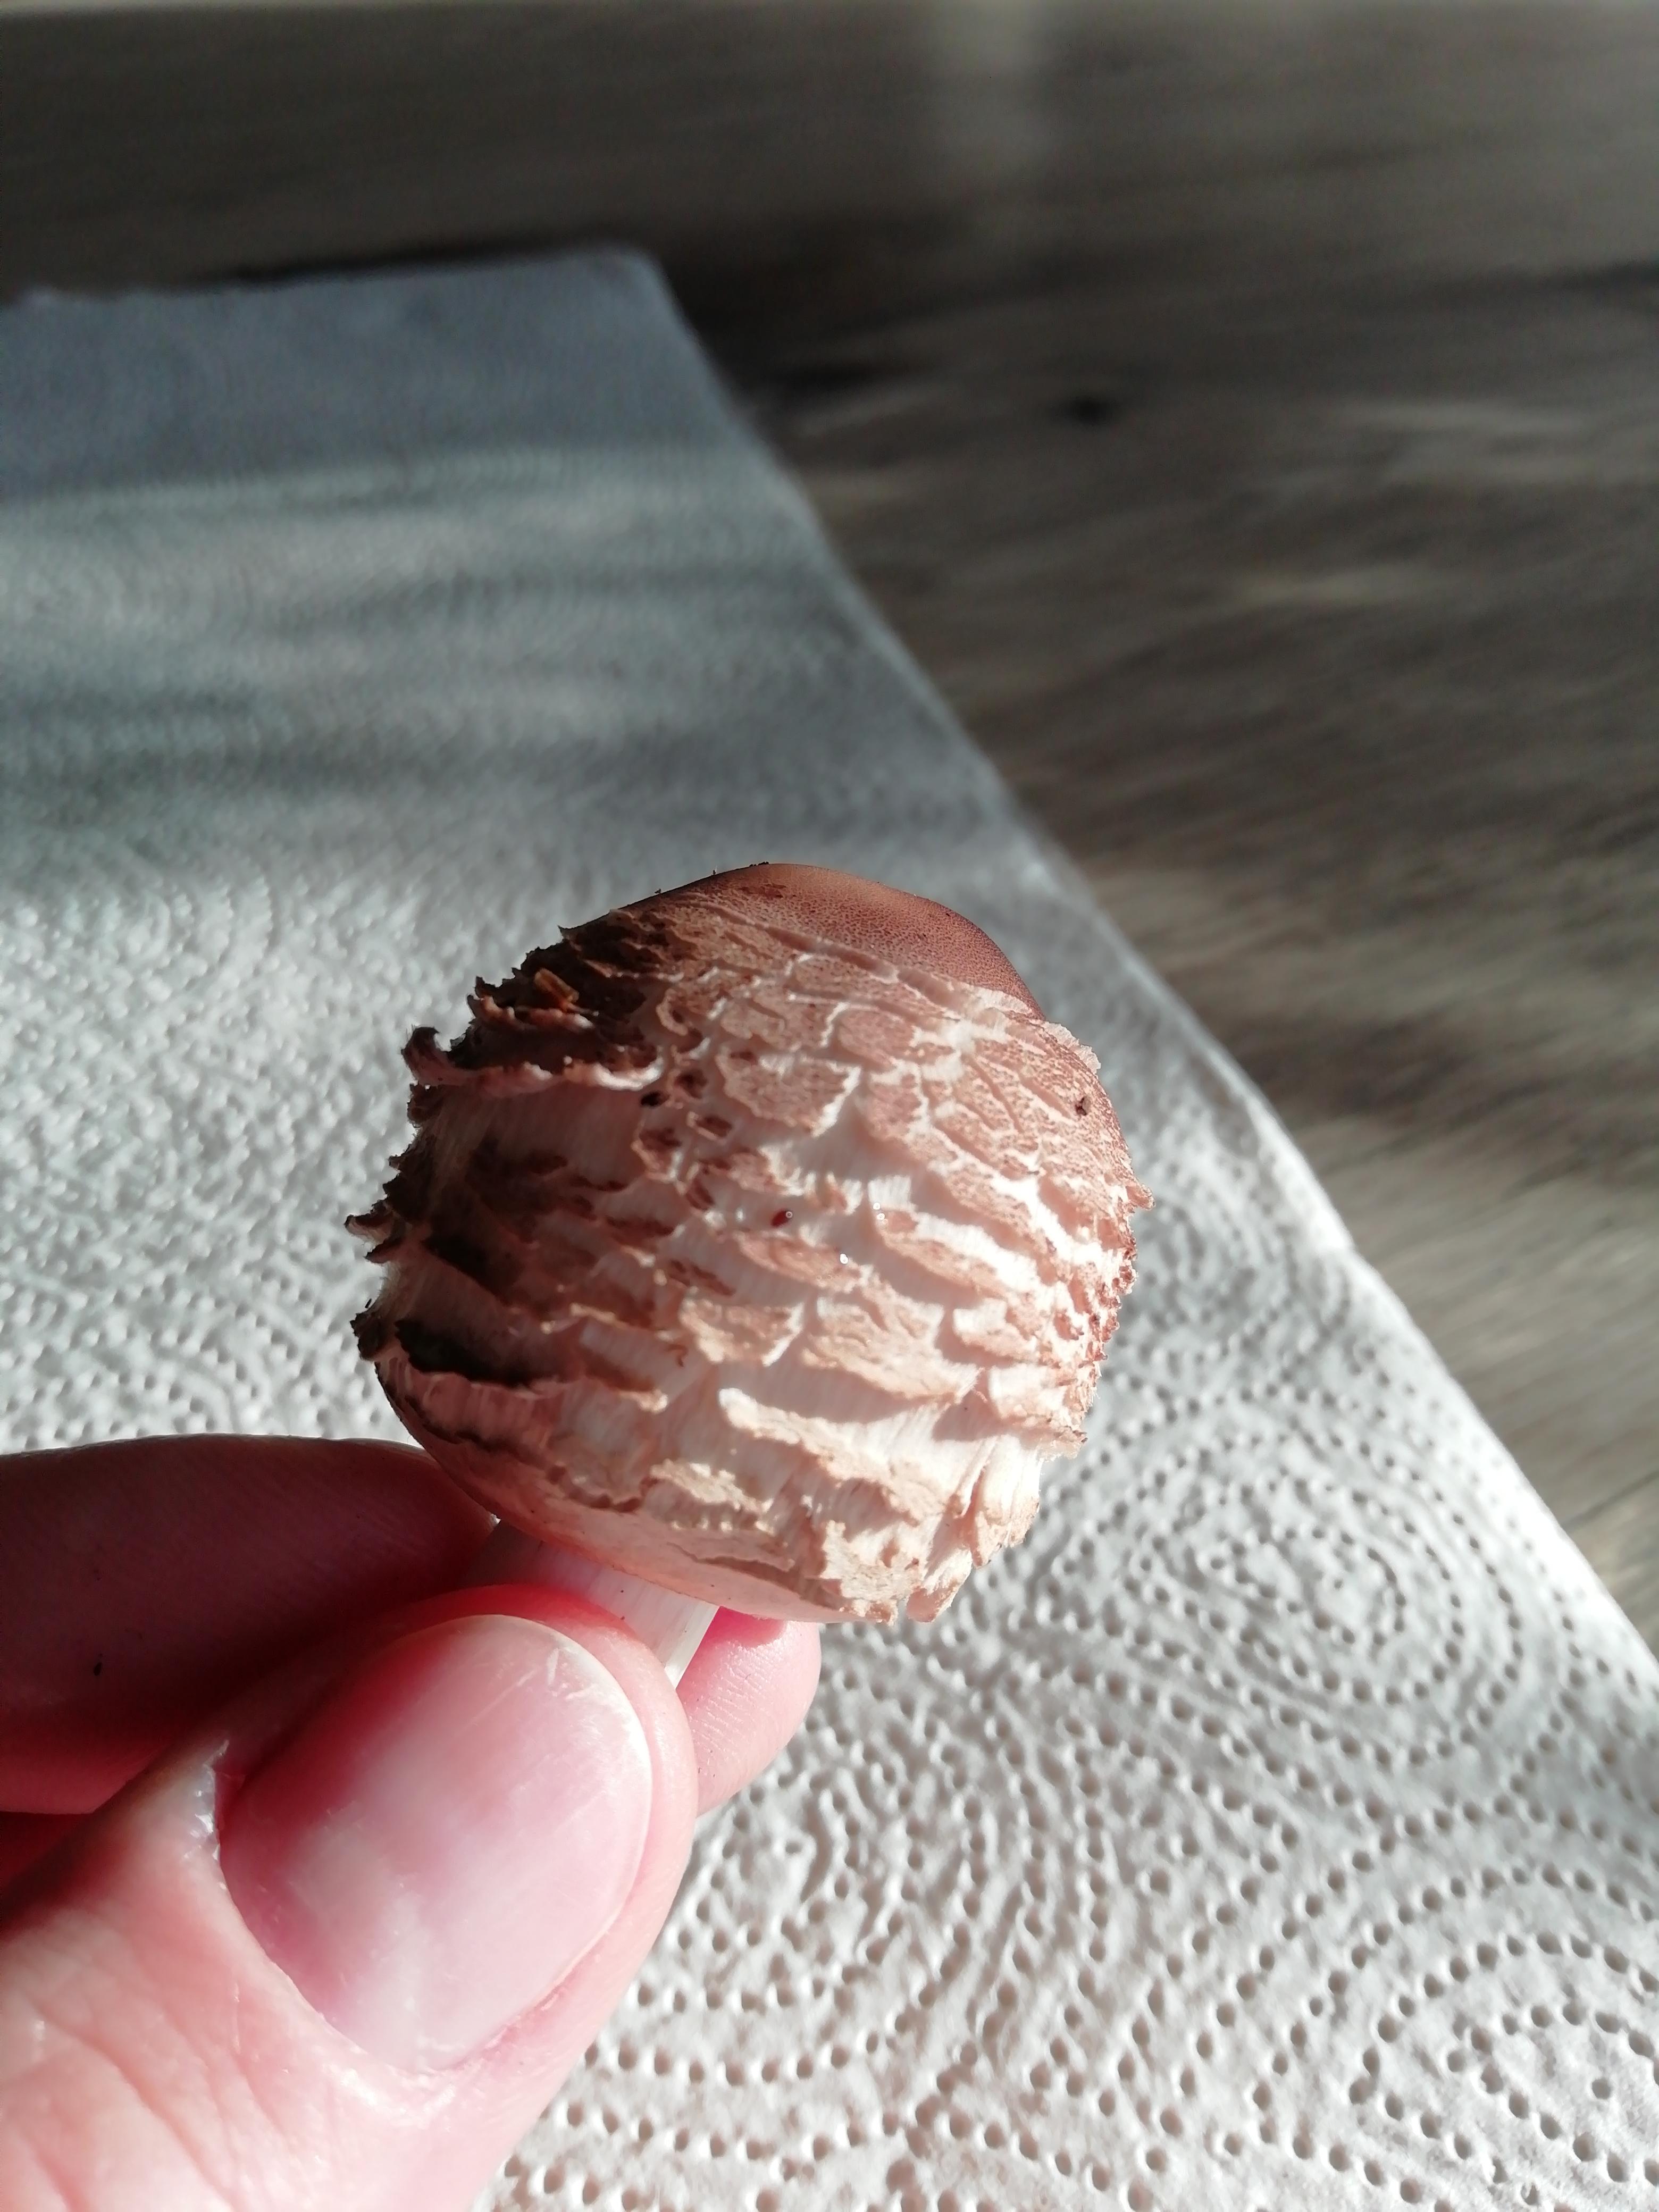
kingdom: Fungi
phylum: Basidiomycota
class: Agaricomycetes
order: Agaricales
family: Agaricaceae
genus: Chlorophyllum
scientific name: Chlorophyllum
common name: rabarberhat
